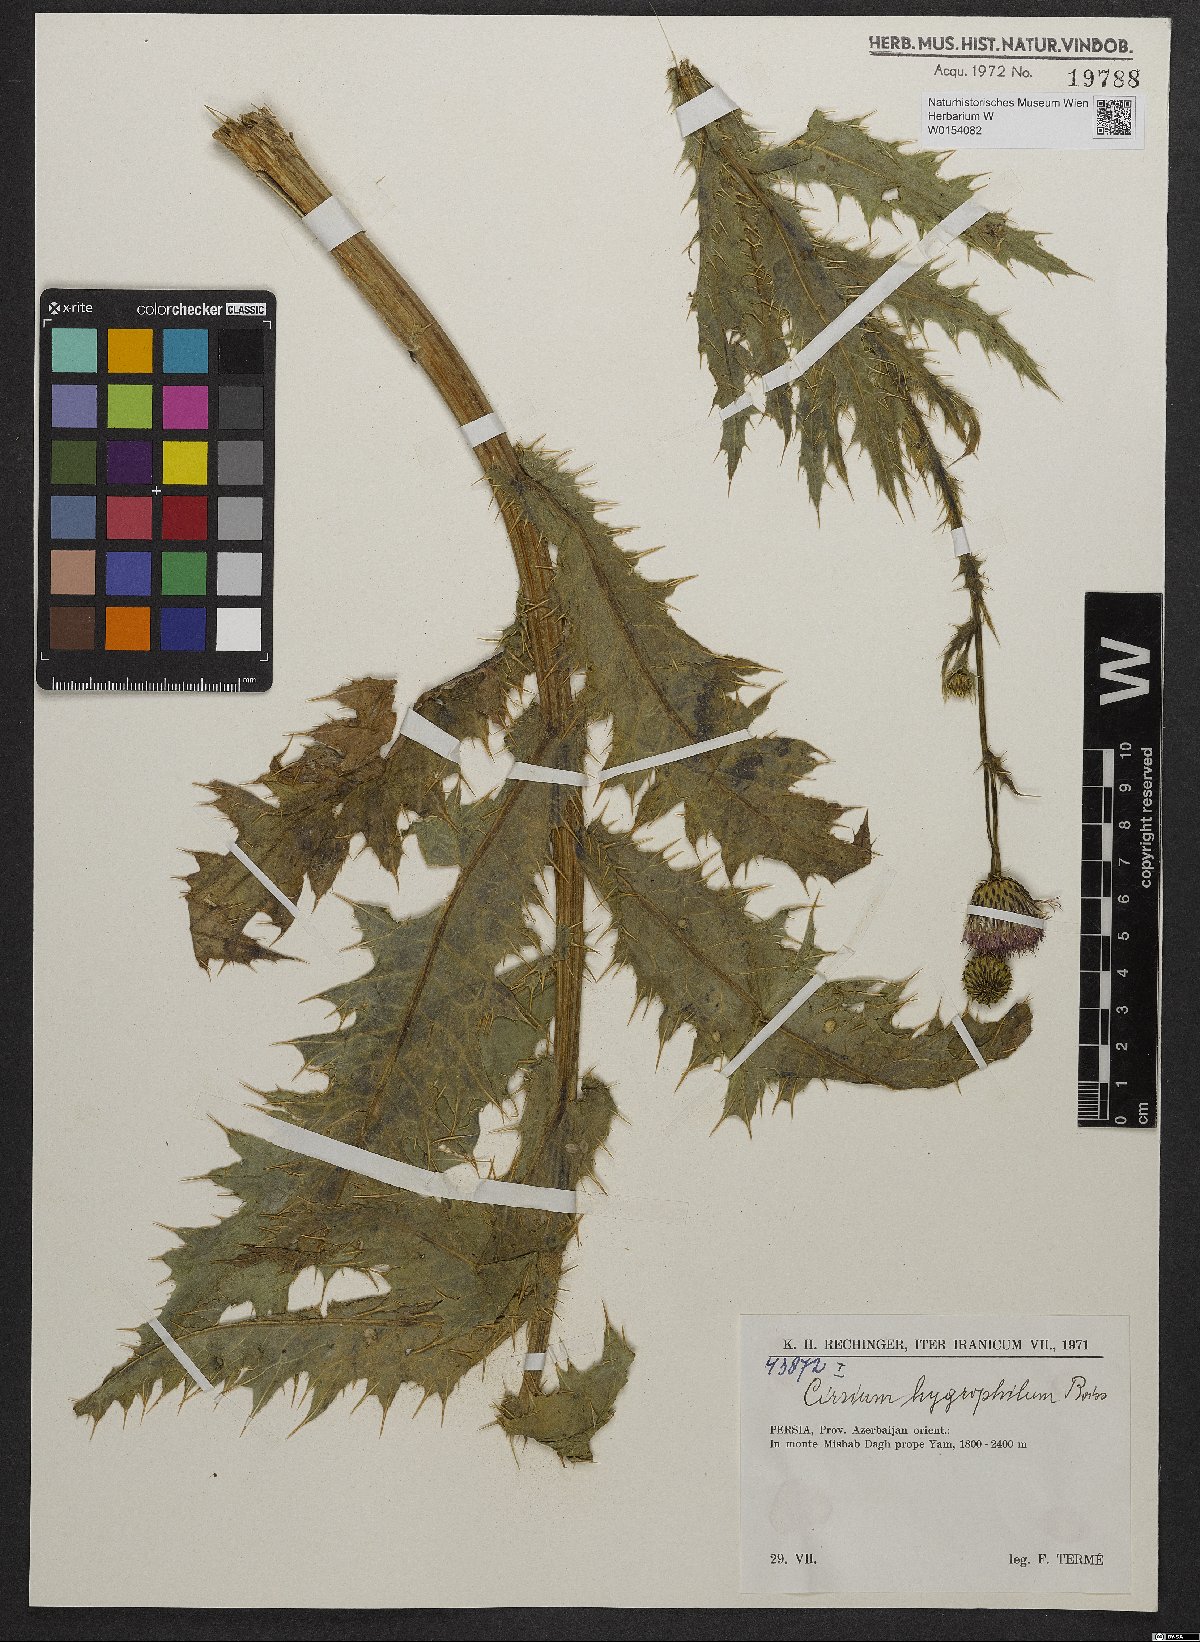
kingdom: Plantae
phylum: Tracheophyta
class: Magnoliopsida
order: Asterales
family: Asteraceae
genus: Cirsium
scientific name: Cirsium hygrophilum
